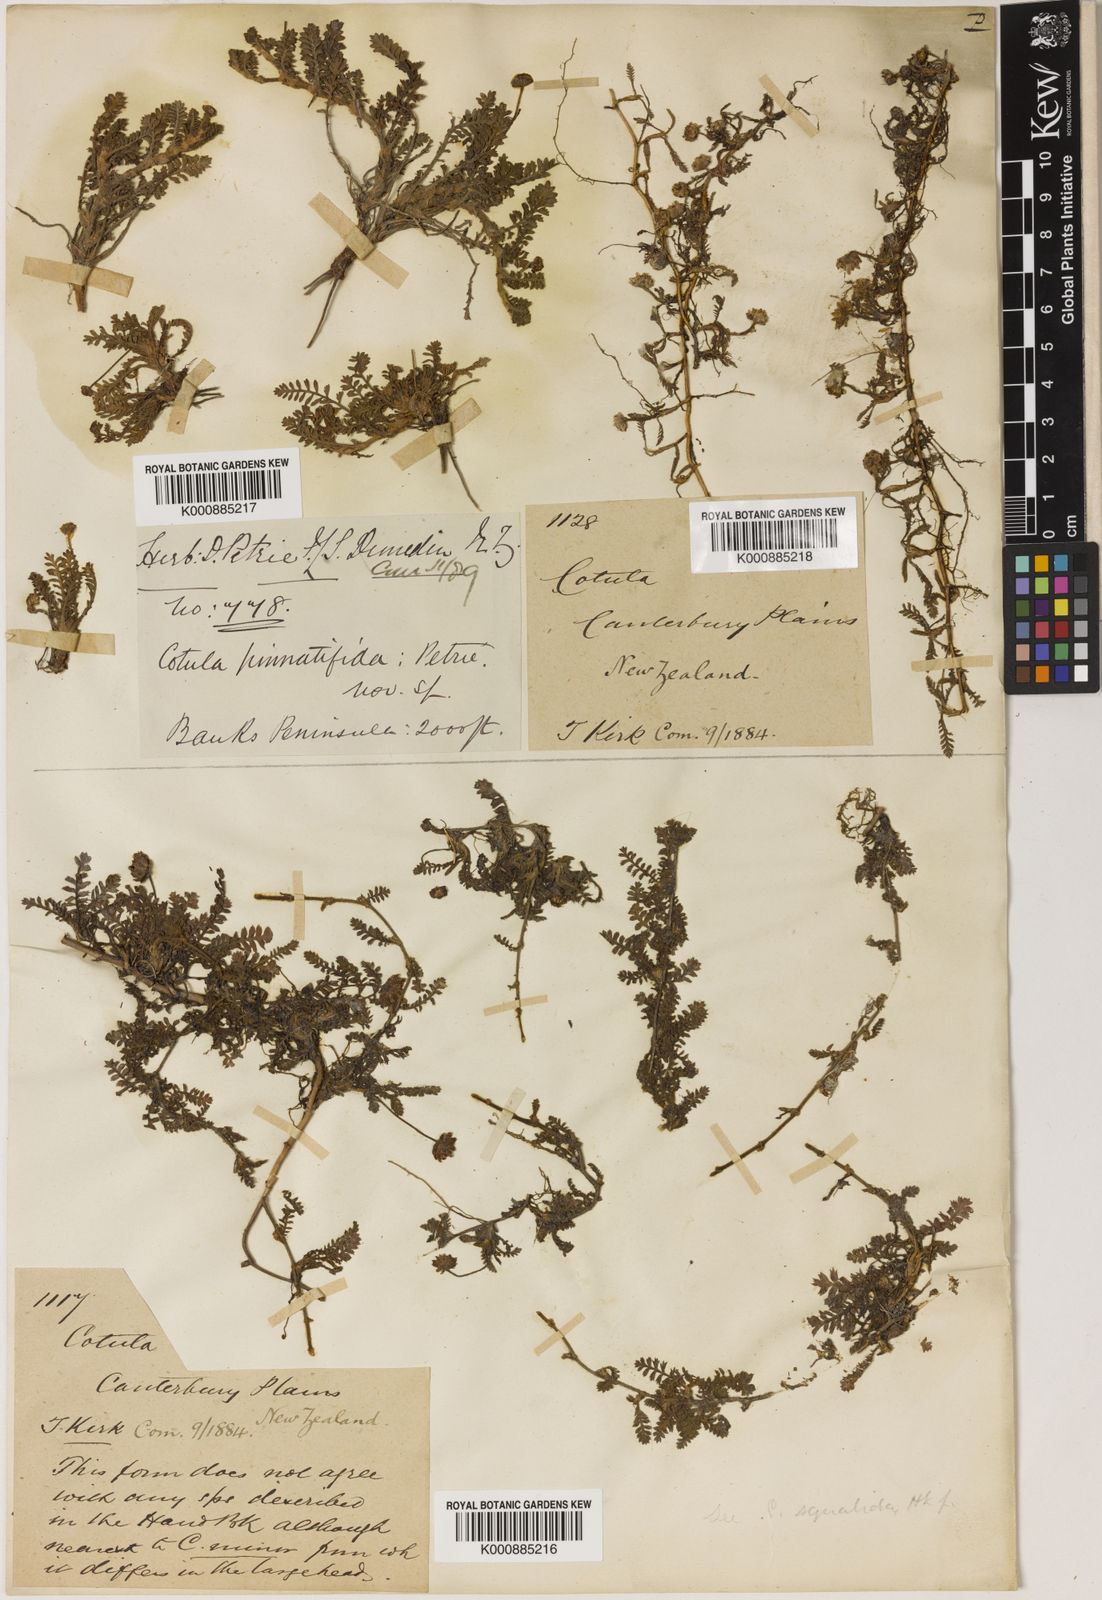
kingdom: Plantae
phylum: Tracheophyta
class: Magnoliopsida
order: Asterales
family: Asteraceae
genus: Leptinella
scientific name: Leptinella
